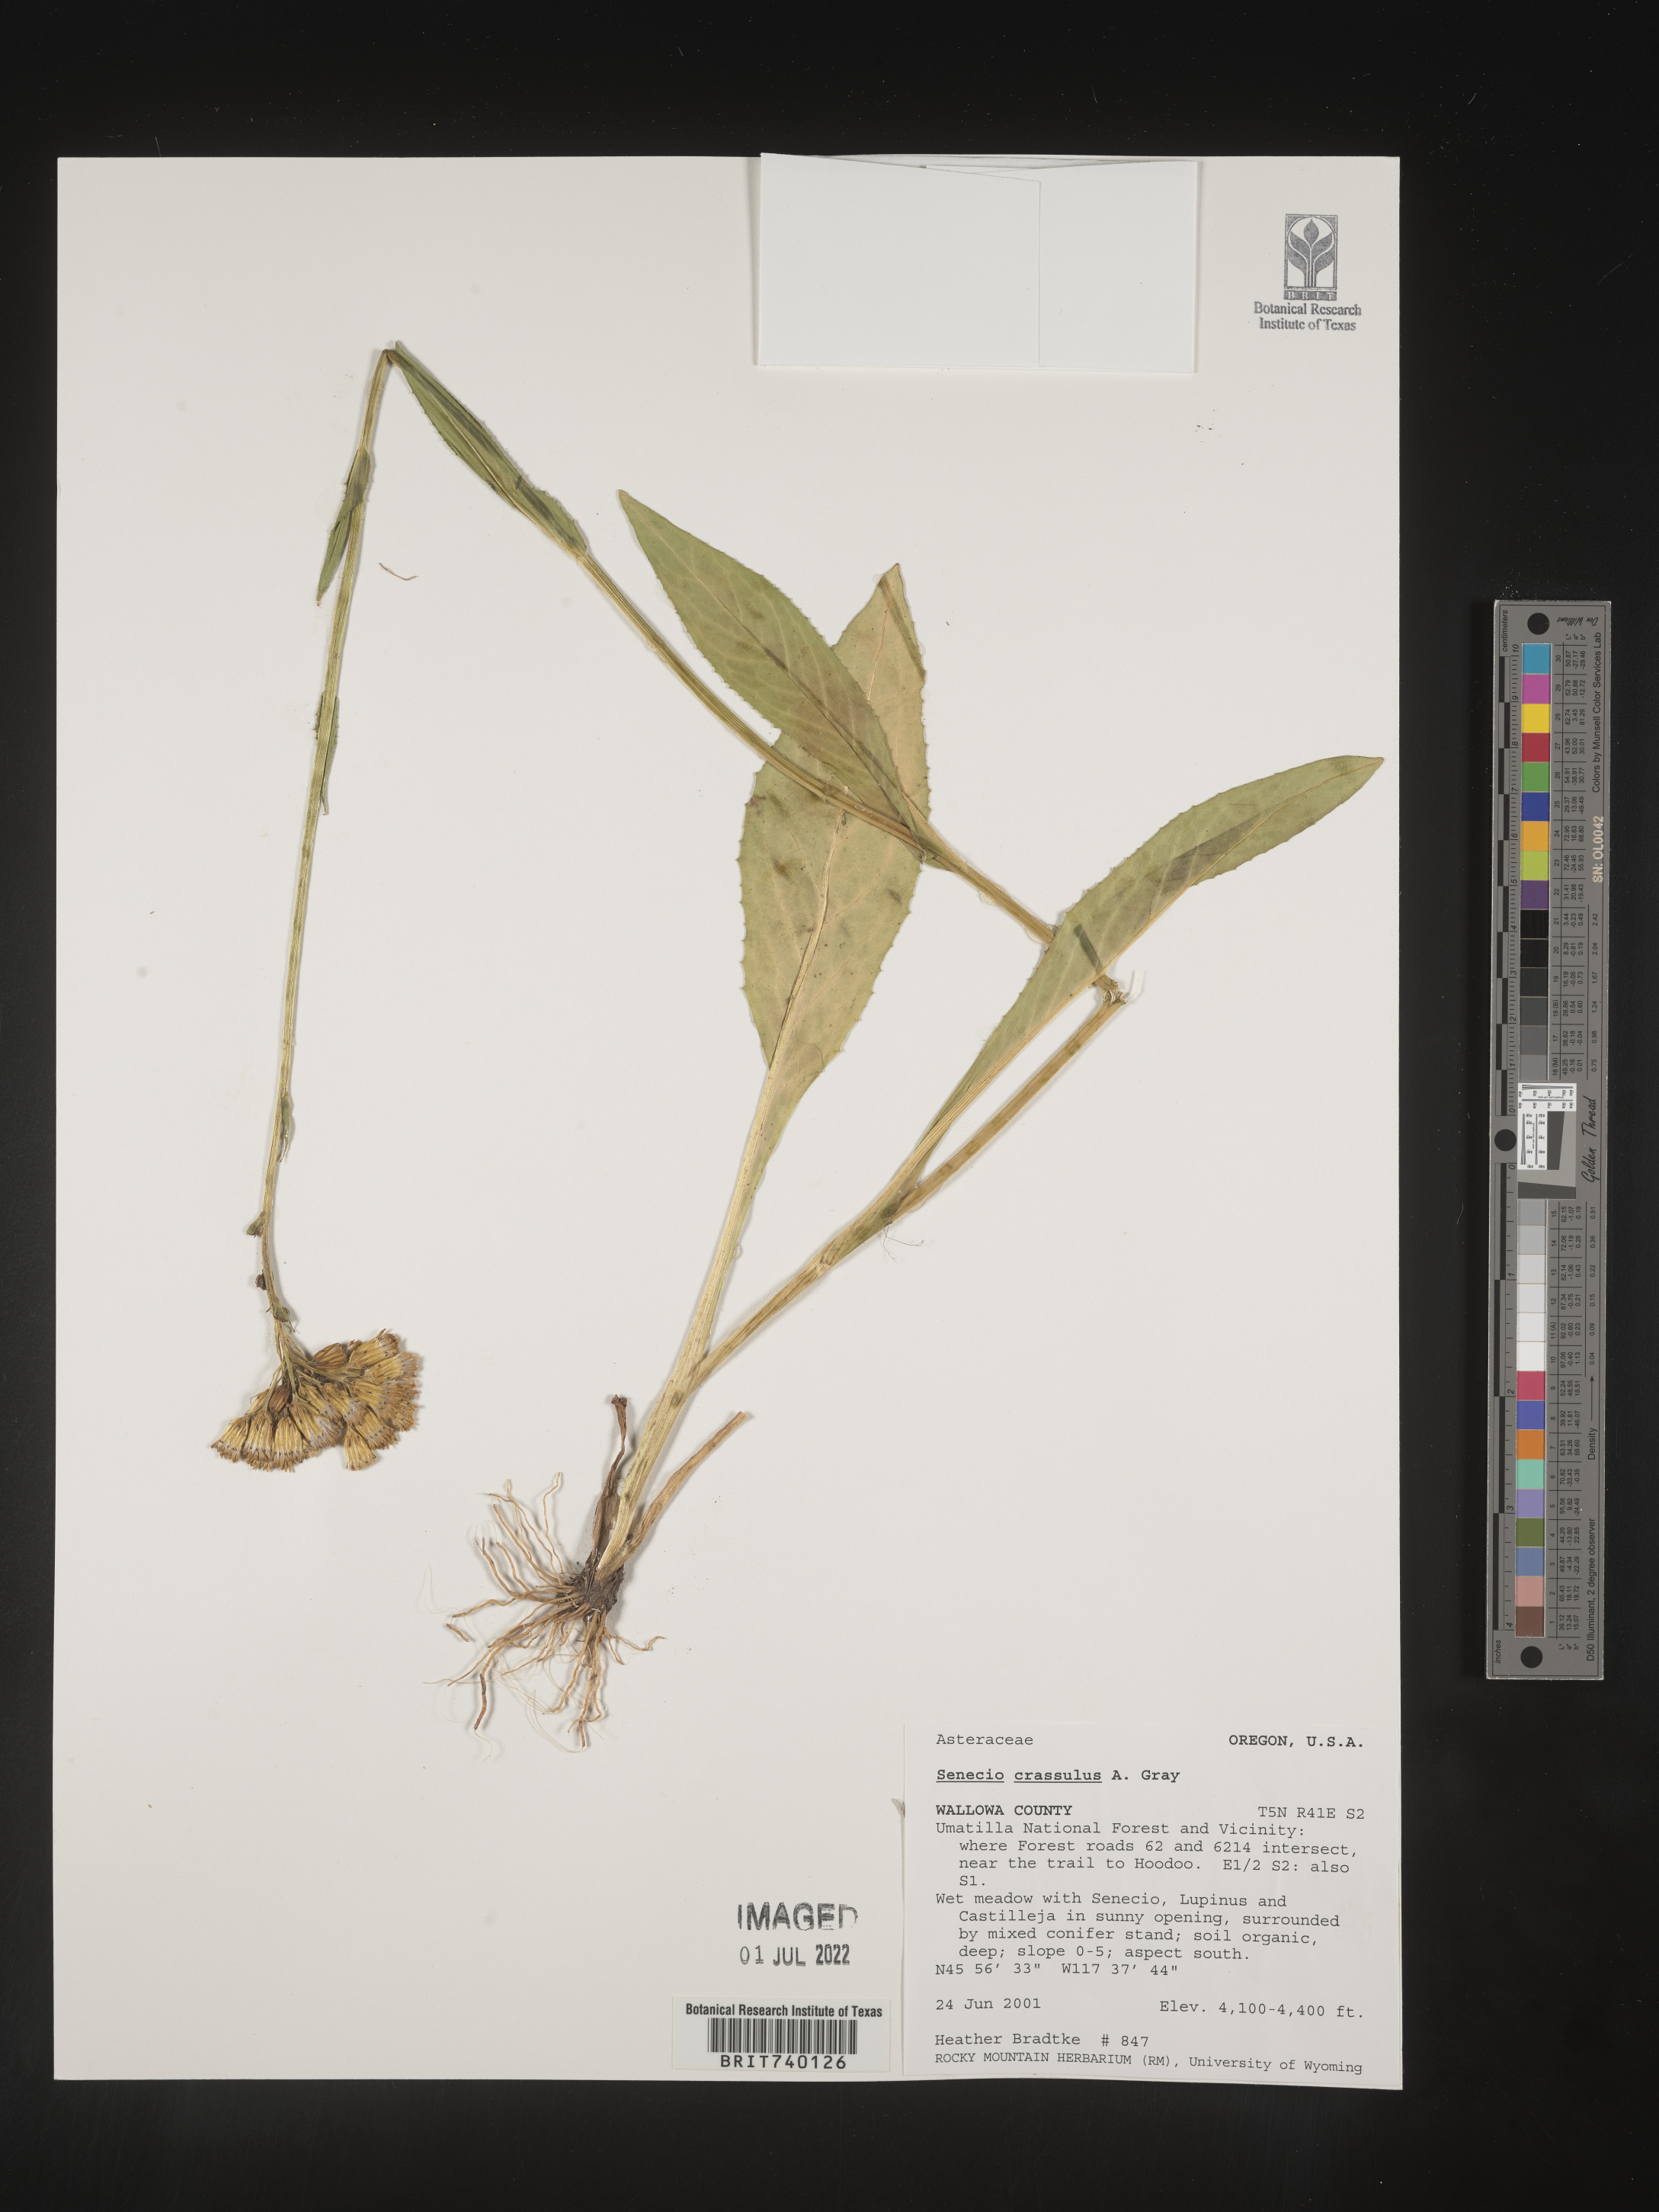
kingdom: Plantae
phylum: Tracheophyta
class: Magnoliopsida
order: Asterales
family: Asteraceae
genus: Senecio
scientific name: Senecio crassulus
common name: Mountain-meadow butterweed
